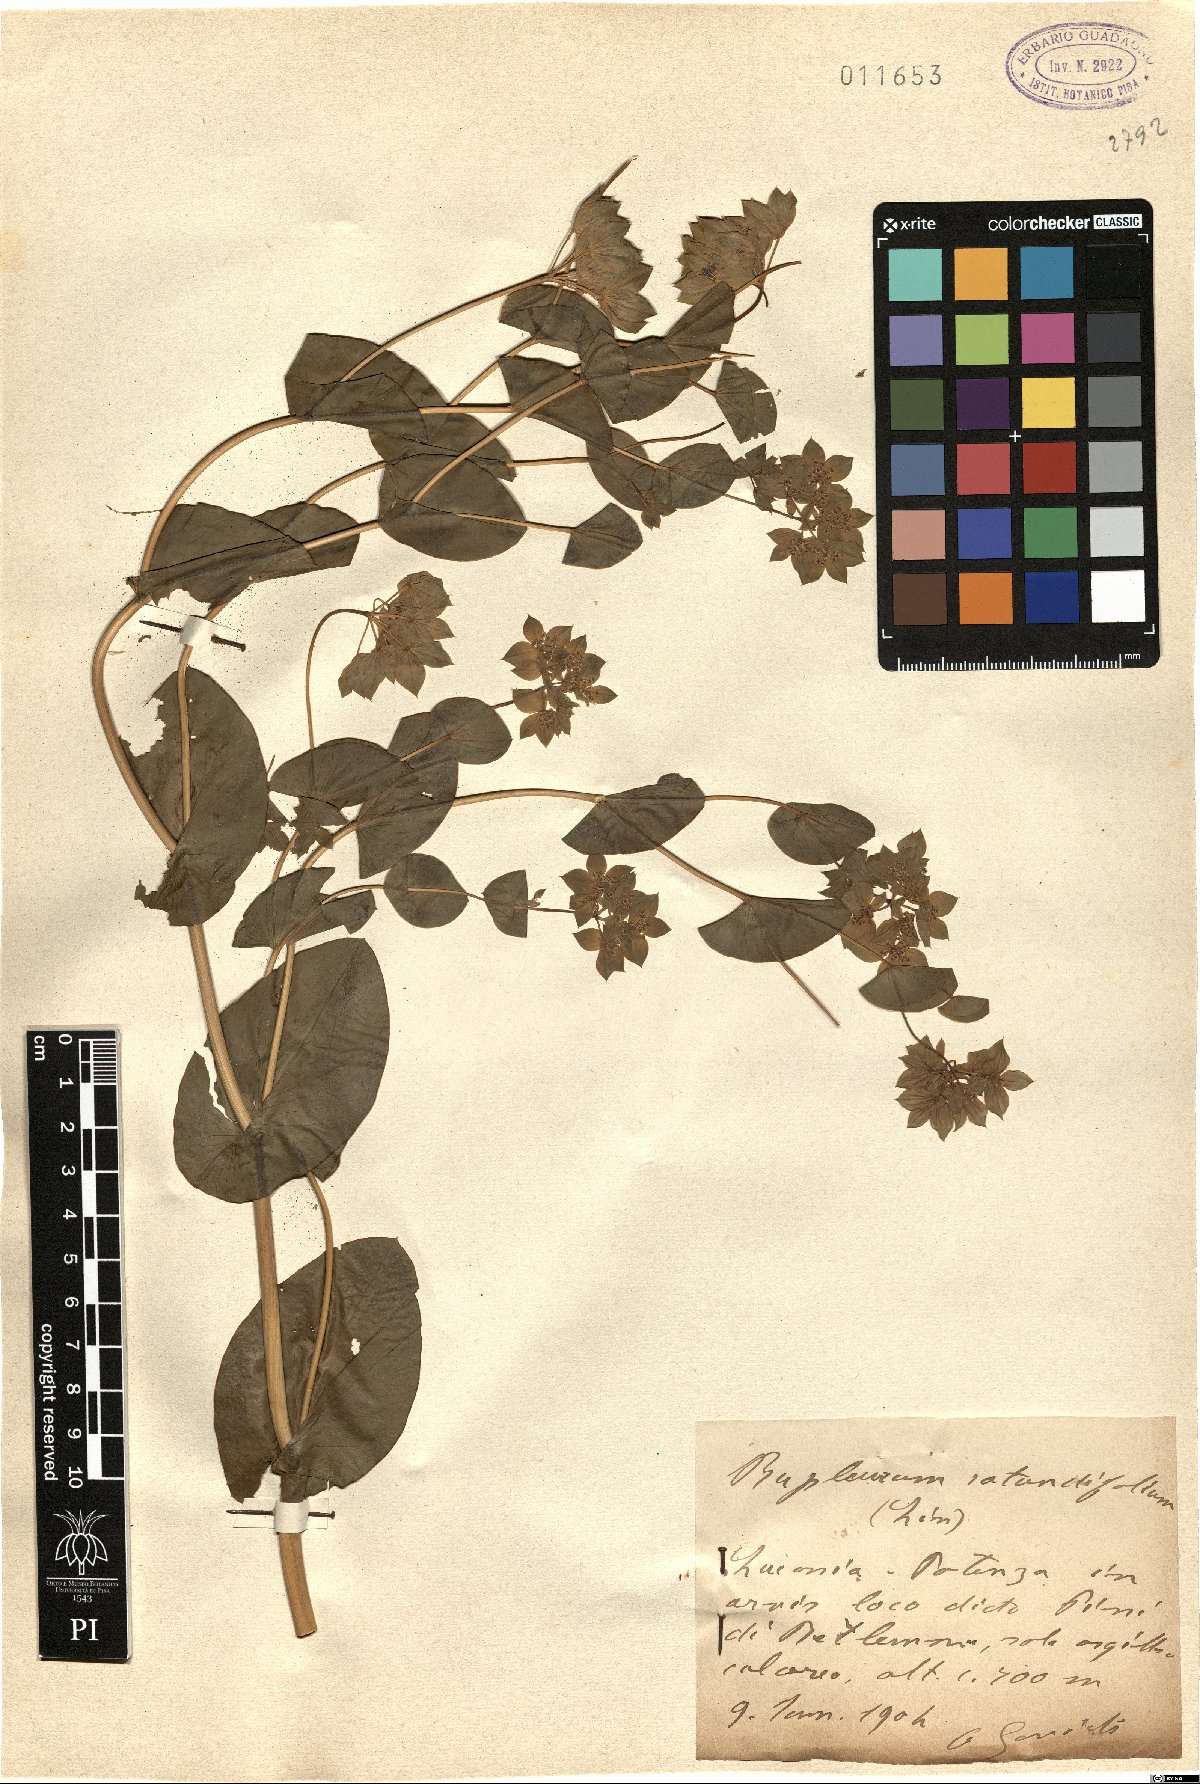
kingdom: Plantae
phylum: Tracheophyta
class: Magnoliopsida
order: Apiales
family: Apiaceae
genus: Bupleurum
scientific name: Bupleurum rotundifolium
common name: Thorow-wax
